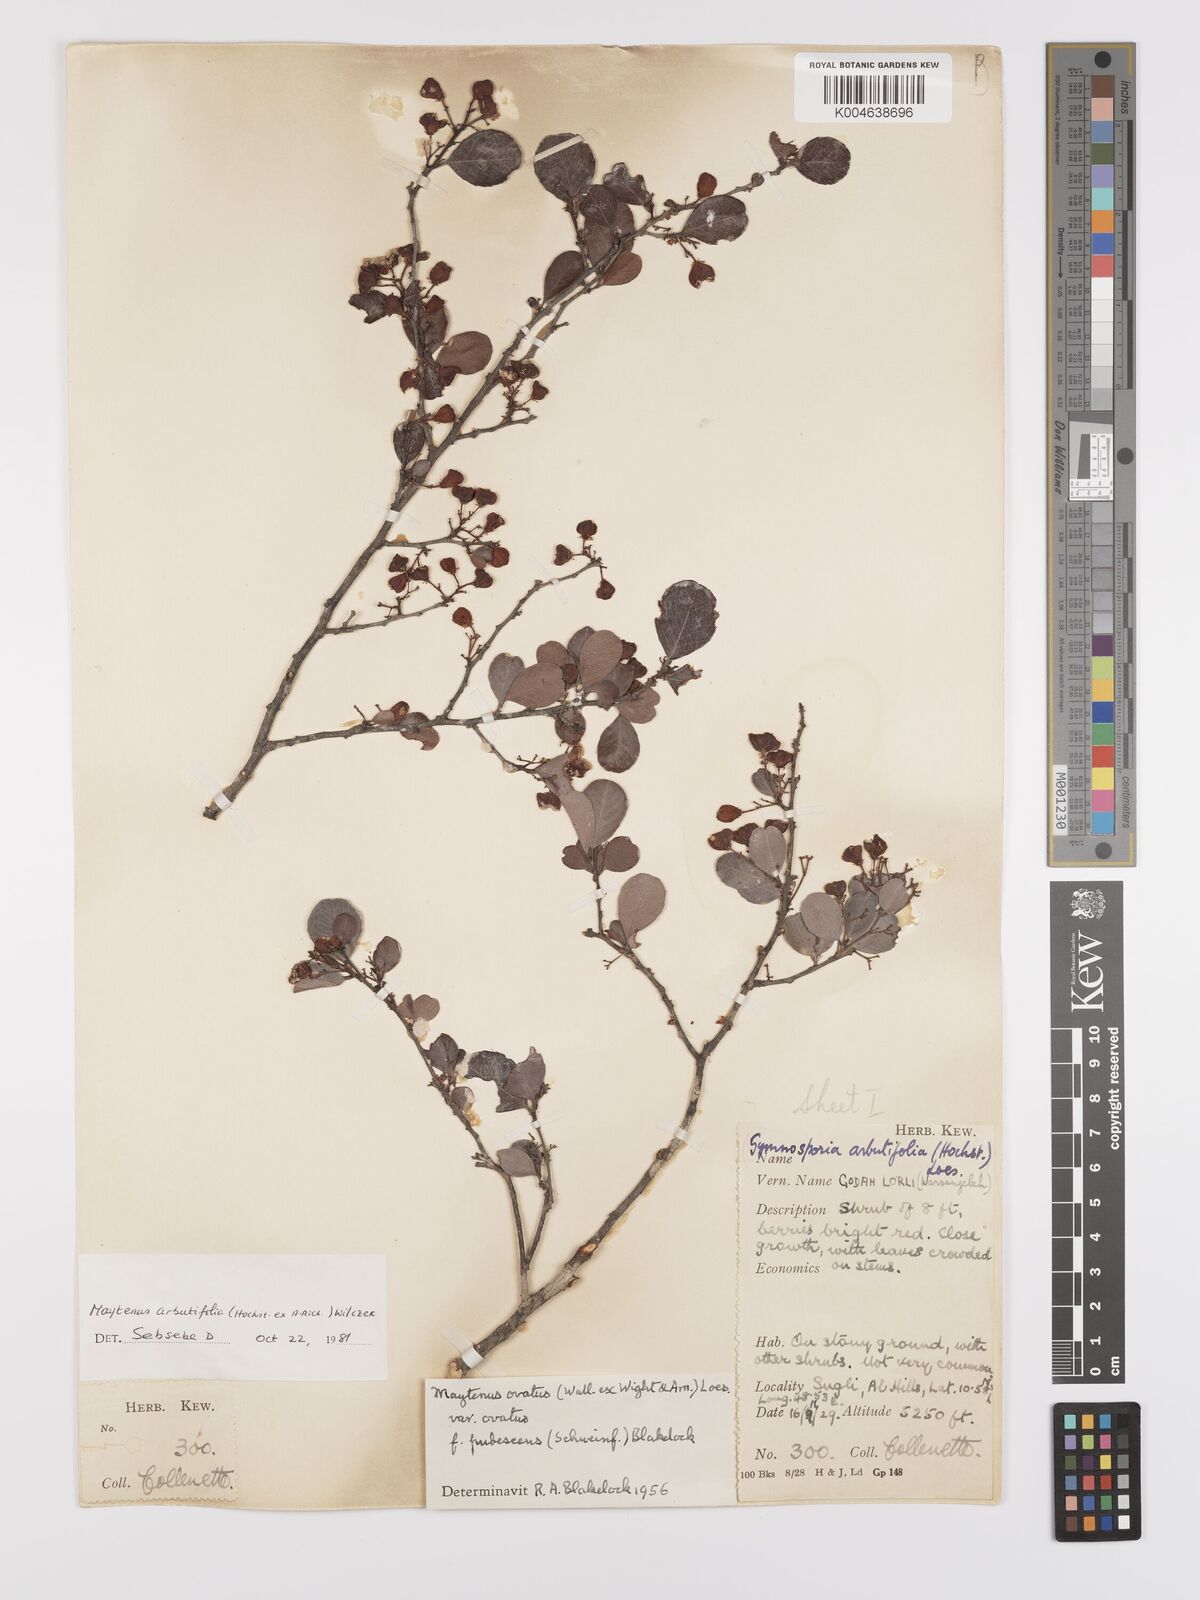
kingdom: Plantae
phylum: Tracheophyta
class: Magnoliopsida
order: Celastrales
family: Celastraceae
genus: Gymnosporia
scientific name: Gymnosporia arbutifolia
